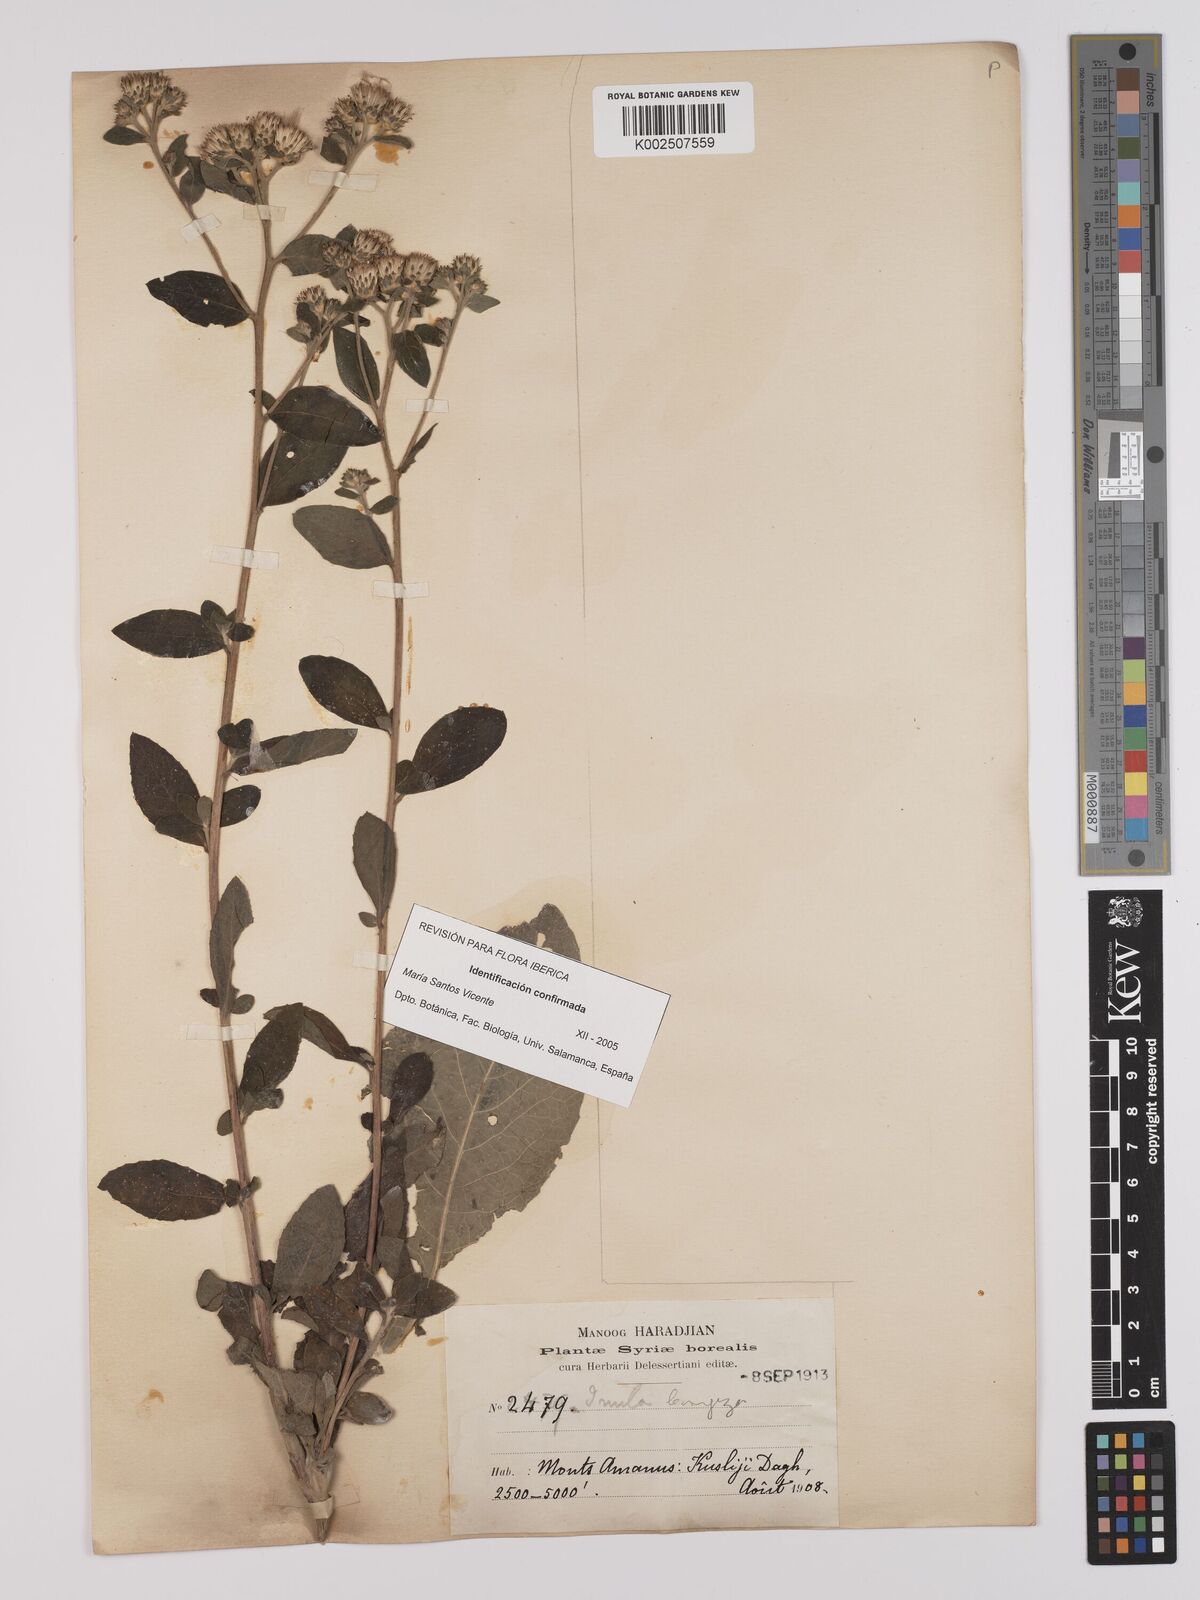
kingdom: Plantae
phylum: Tracheophyta
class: Magnoliopsida
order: Asterales
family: Asteraceae
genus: Inula
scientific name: Inula
